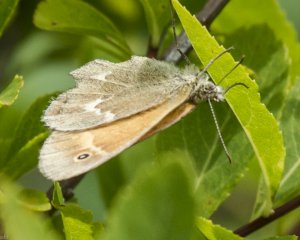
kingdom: Animalia
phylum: Arthropoda
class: Insecta
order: Lepidoptera
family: Nymphalidae
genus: Coenonympha
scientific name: Coenonympha tullia
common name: Large Heath
